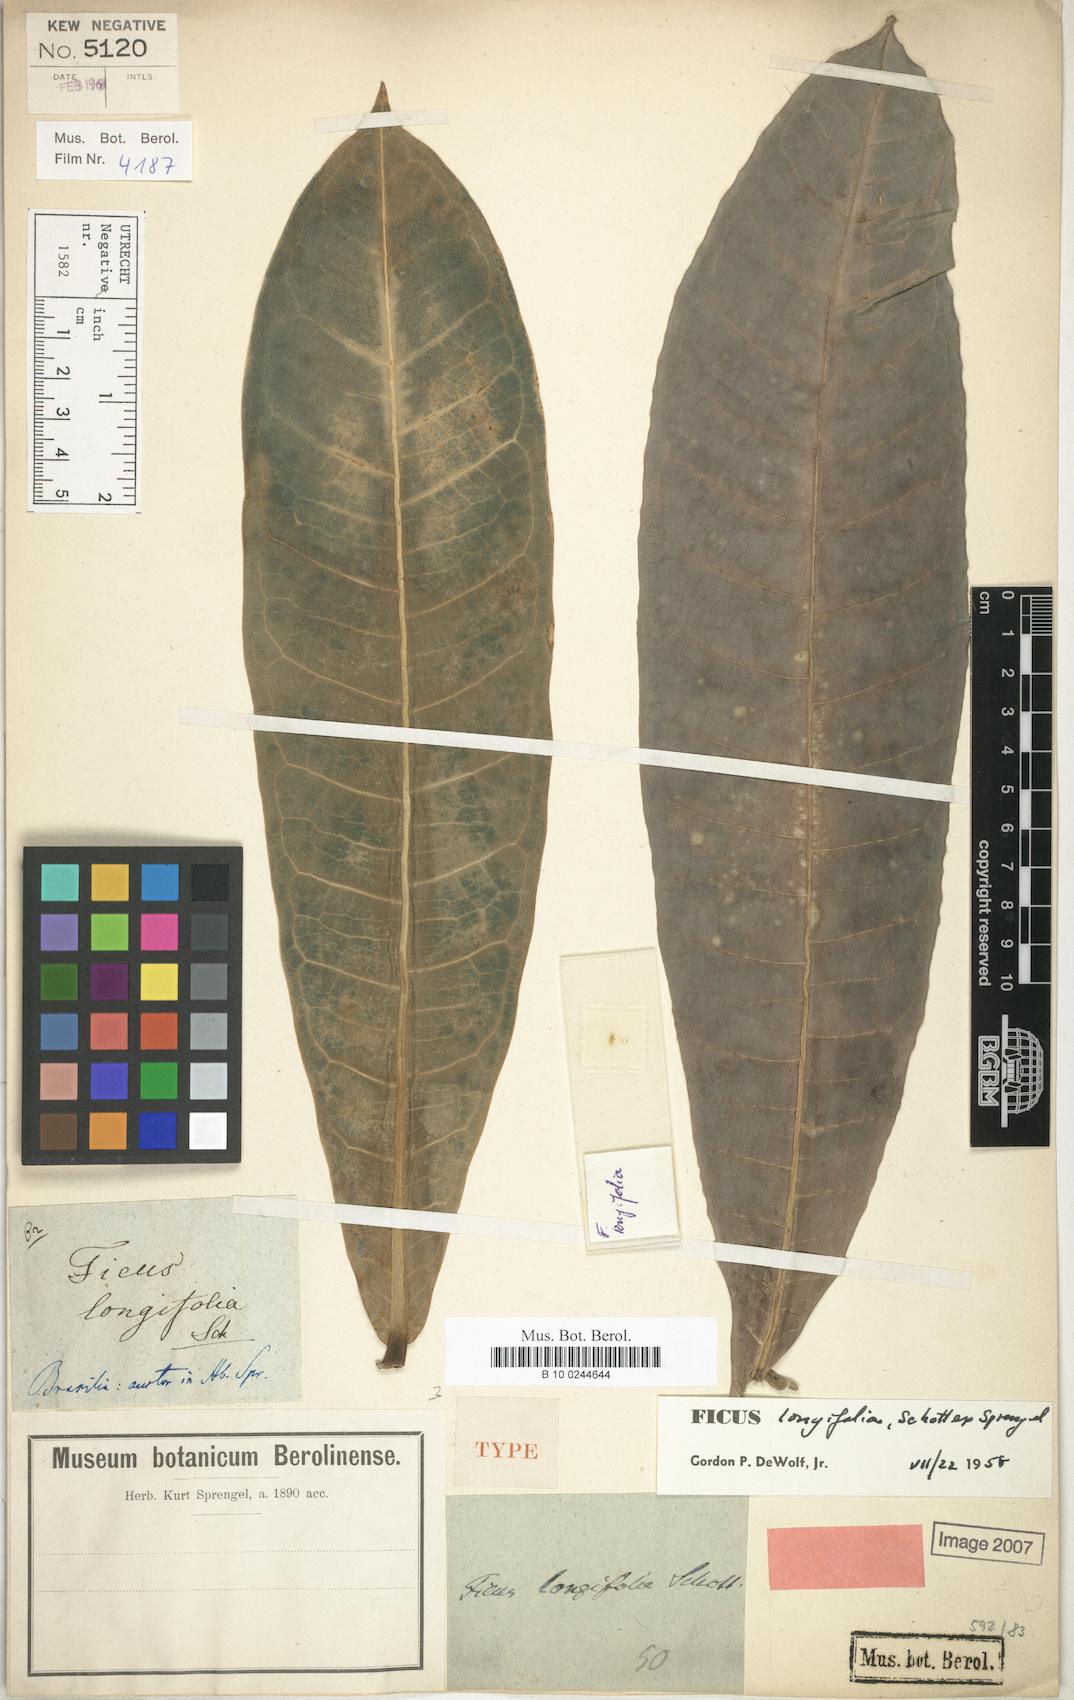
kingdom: Plantae
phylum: Tracheophyta
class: Magnoliopsida
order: Rosales
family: Moraceae
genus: Ficus
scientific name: Ficus longifolia
